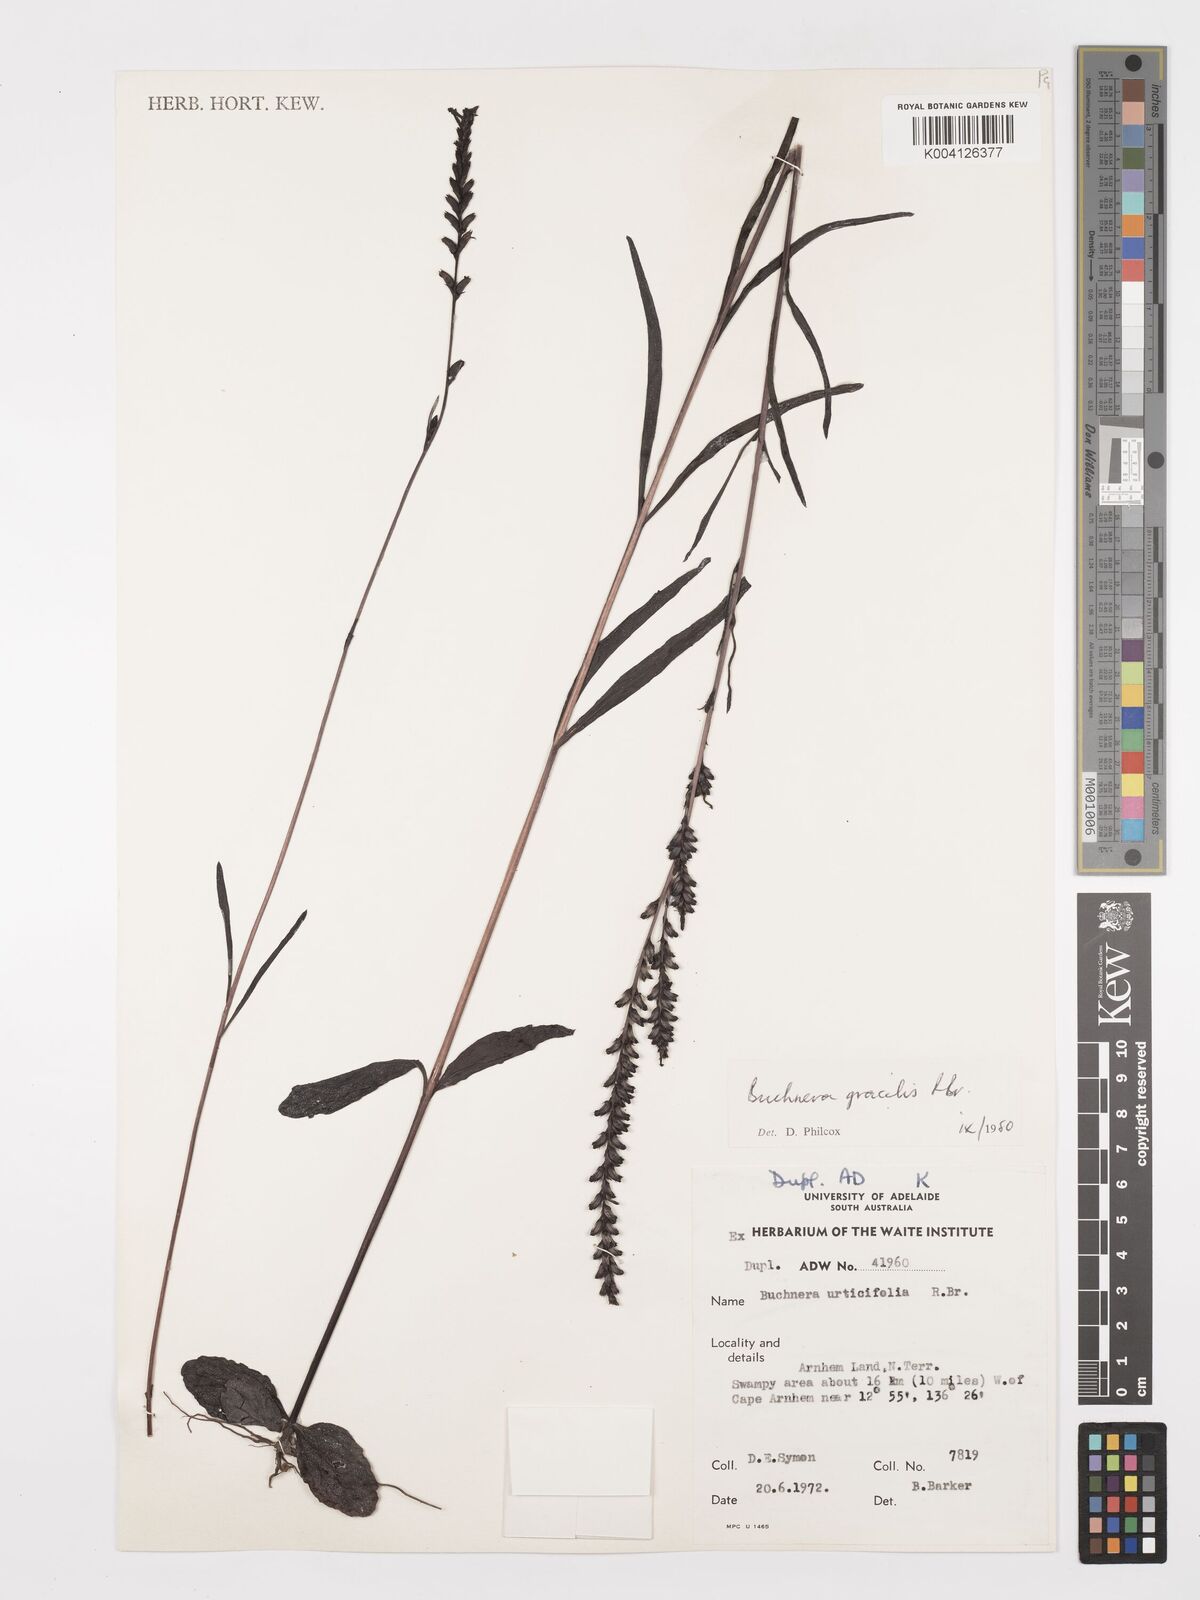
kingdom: Plantae
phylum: Tracheophyta
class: Magnoliopsida
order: Lamiales
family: Orobanchaceae
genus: Buchnera
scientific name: Buchnera gracilis
